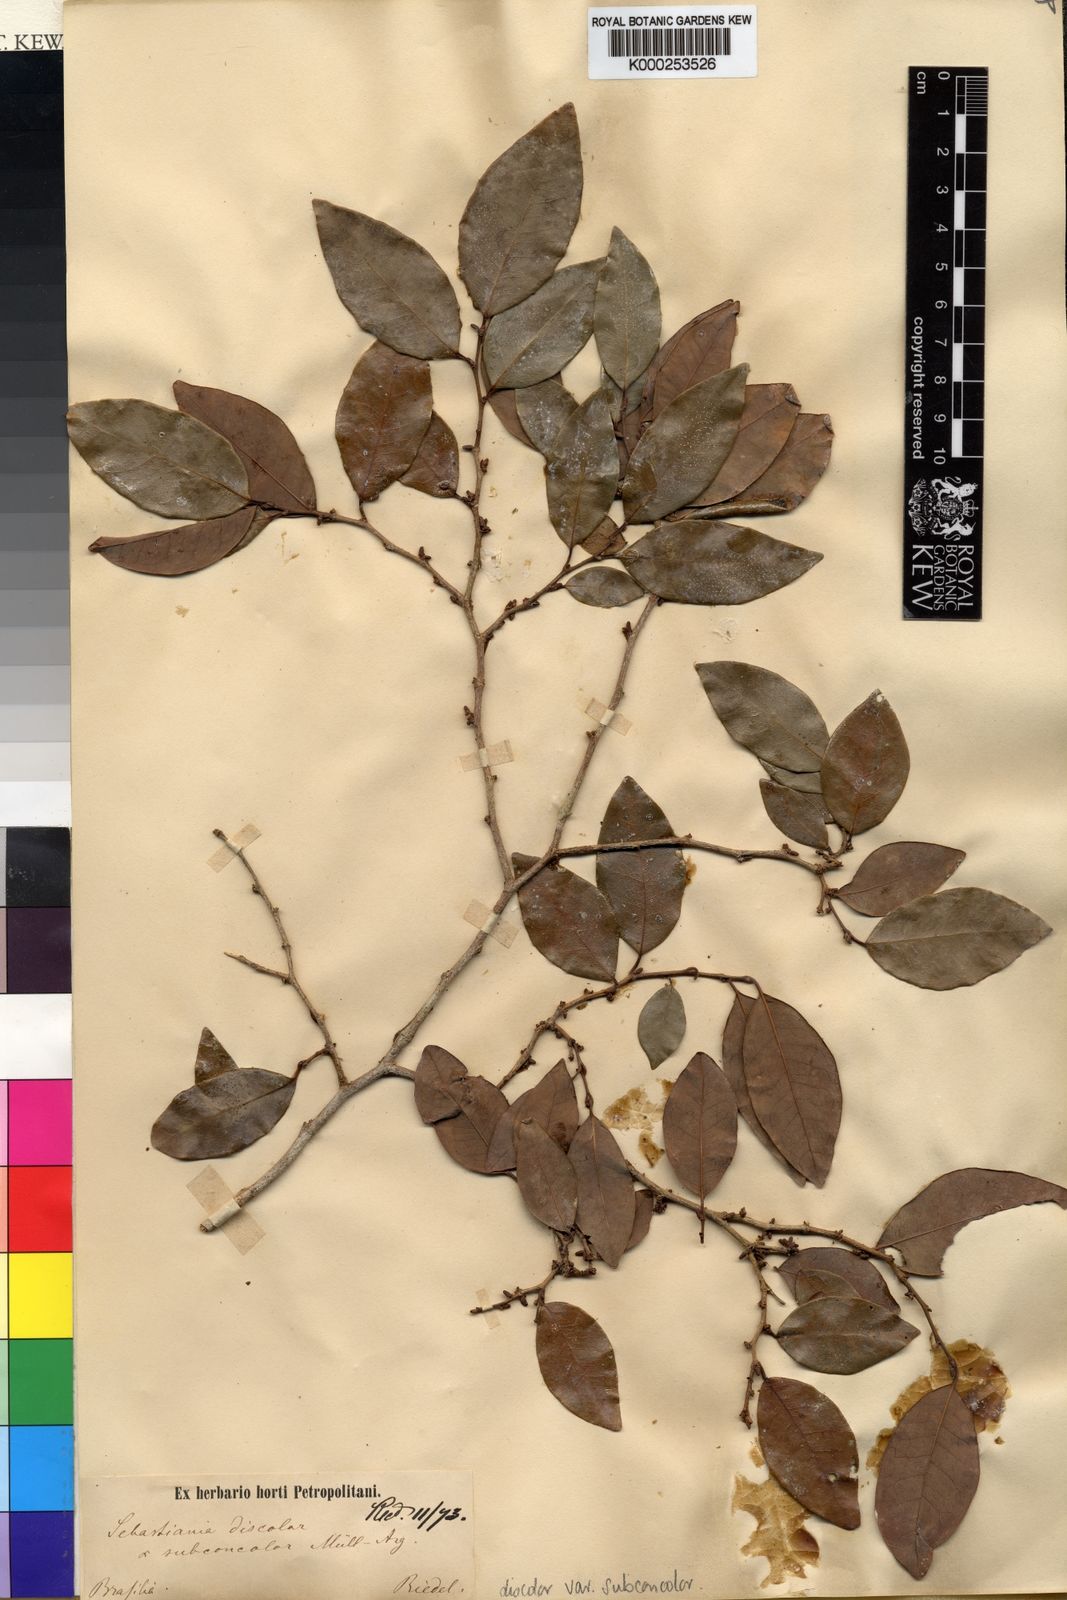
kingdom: Plantae
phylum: Tracheophyta
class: Magnoliopsida
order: Malpighiales
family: Euphorbiaceae
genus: Gymnanthes
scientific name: Gymnanthes
